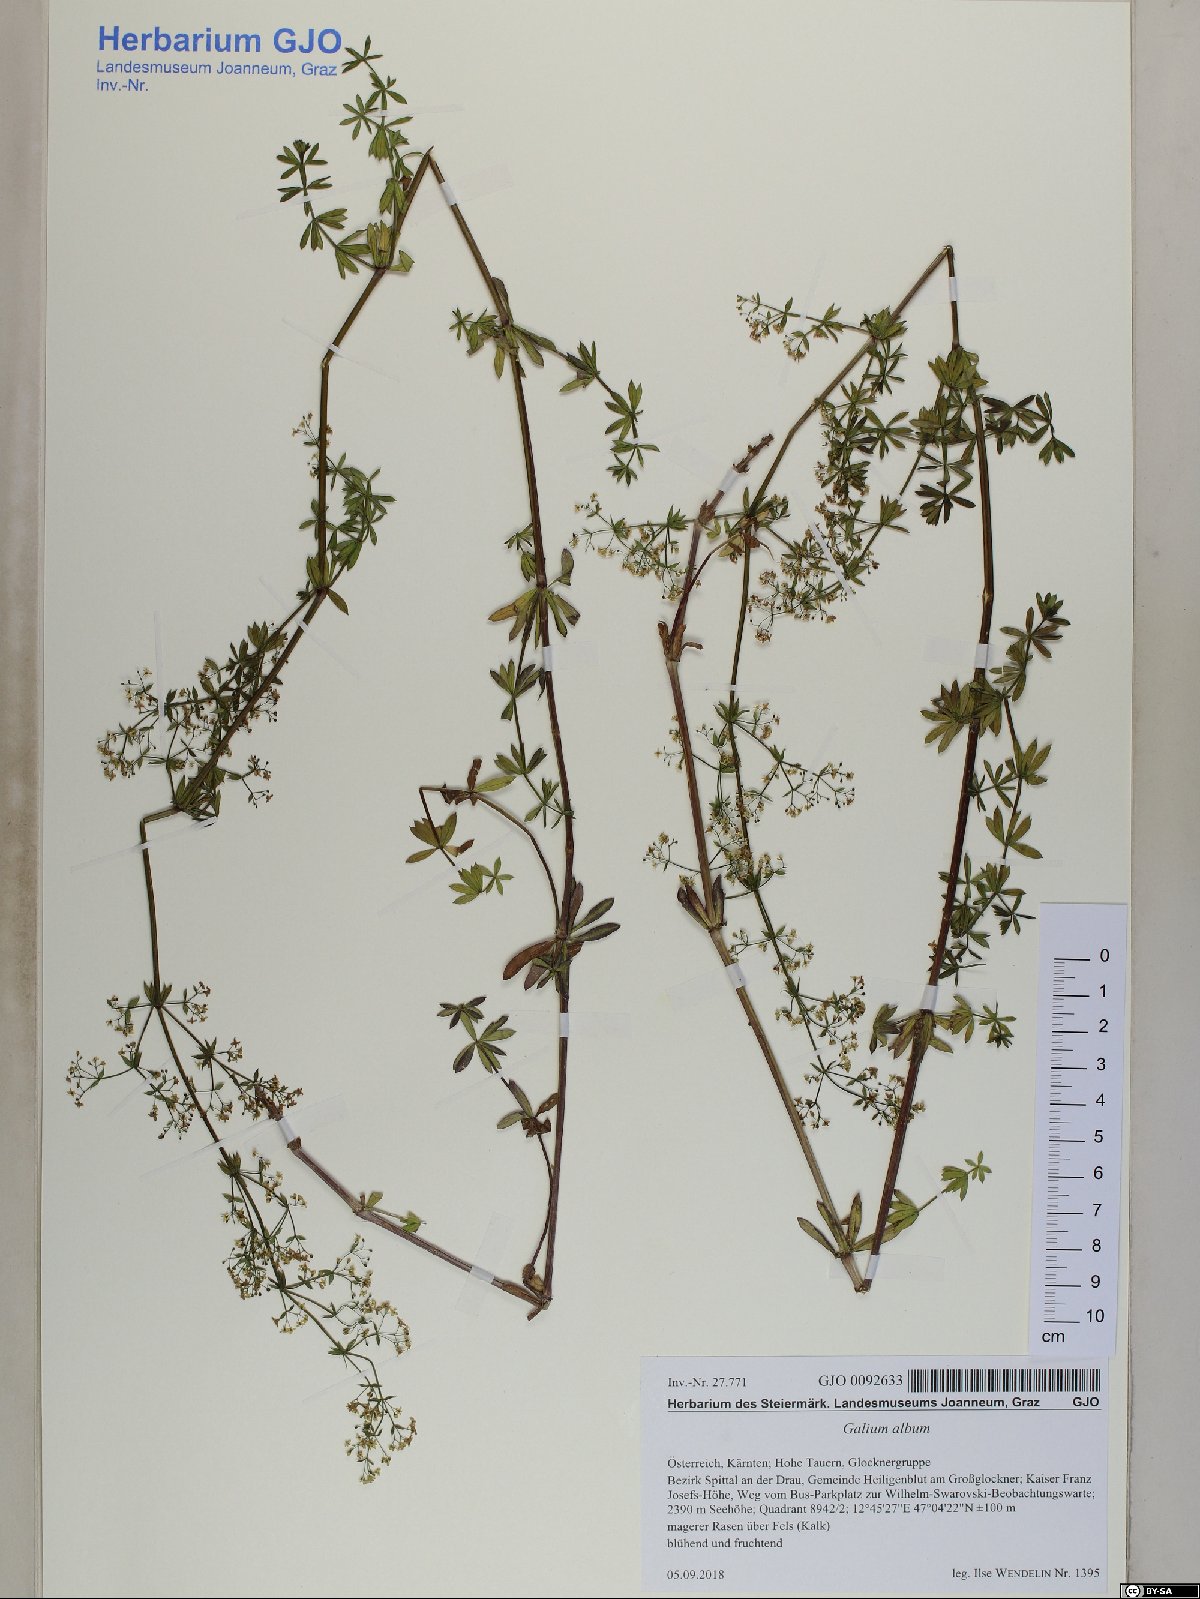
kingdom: Plantae
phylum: Tracheophyta
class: Magnoliopsida
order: Gentianales
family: Rubiaceae
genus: Galium
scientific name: Galium album
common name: White bedstraw
